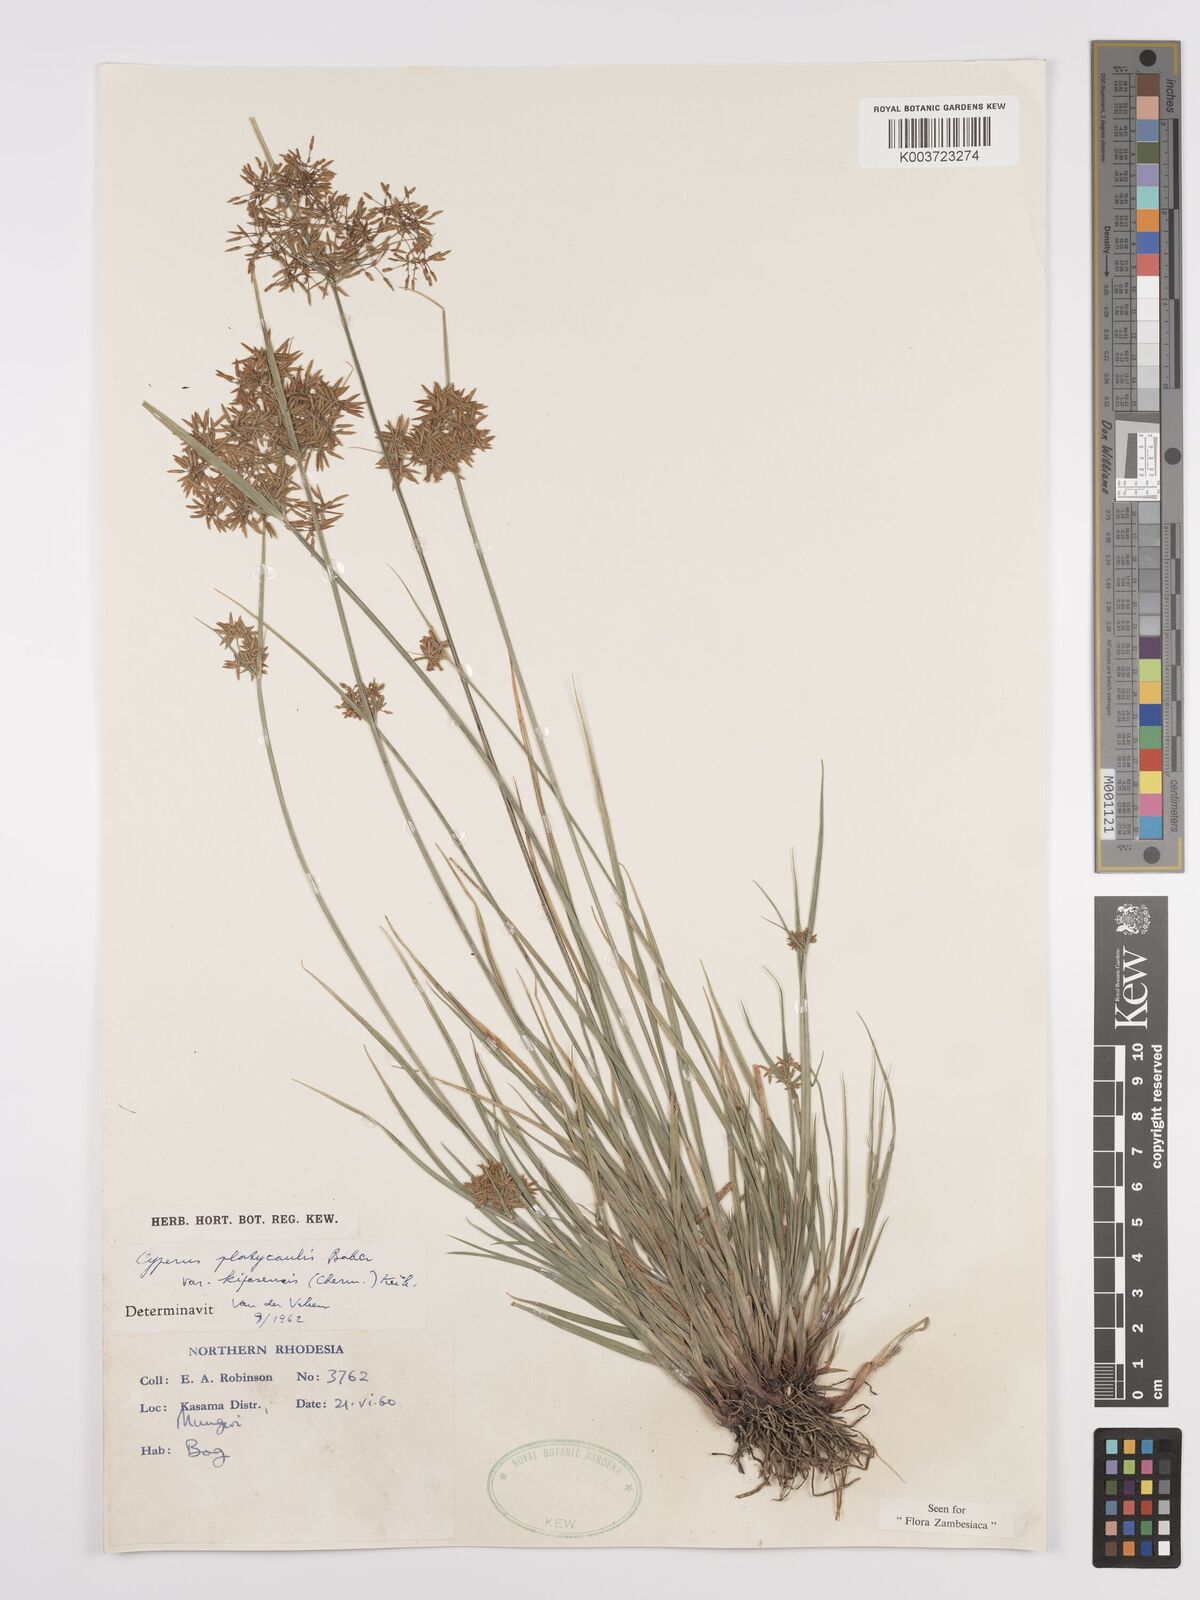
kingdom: Plantae
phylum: Tracheophyta
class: Liliopsida
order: Poales
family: Cyperaceae
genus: Cyperus
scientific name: Cyperus kipasensis
